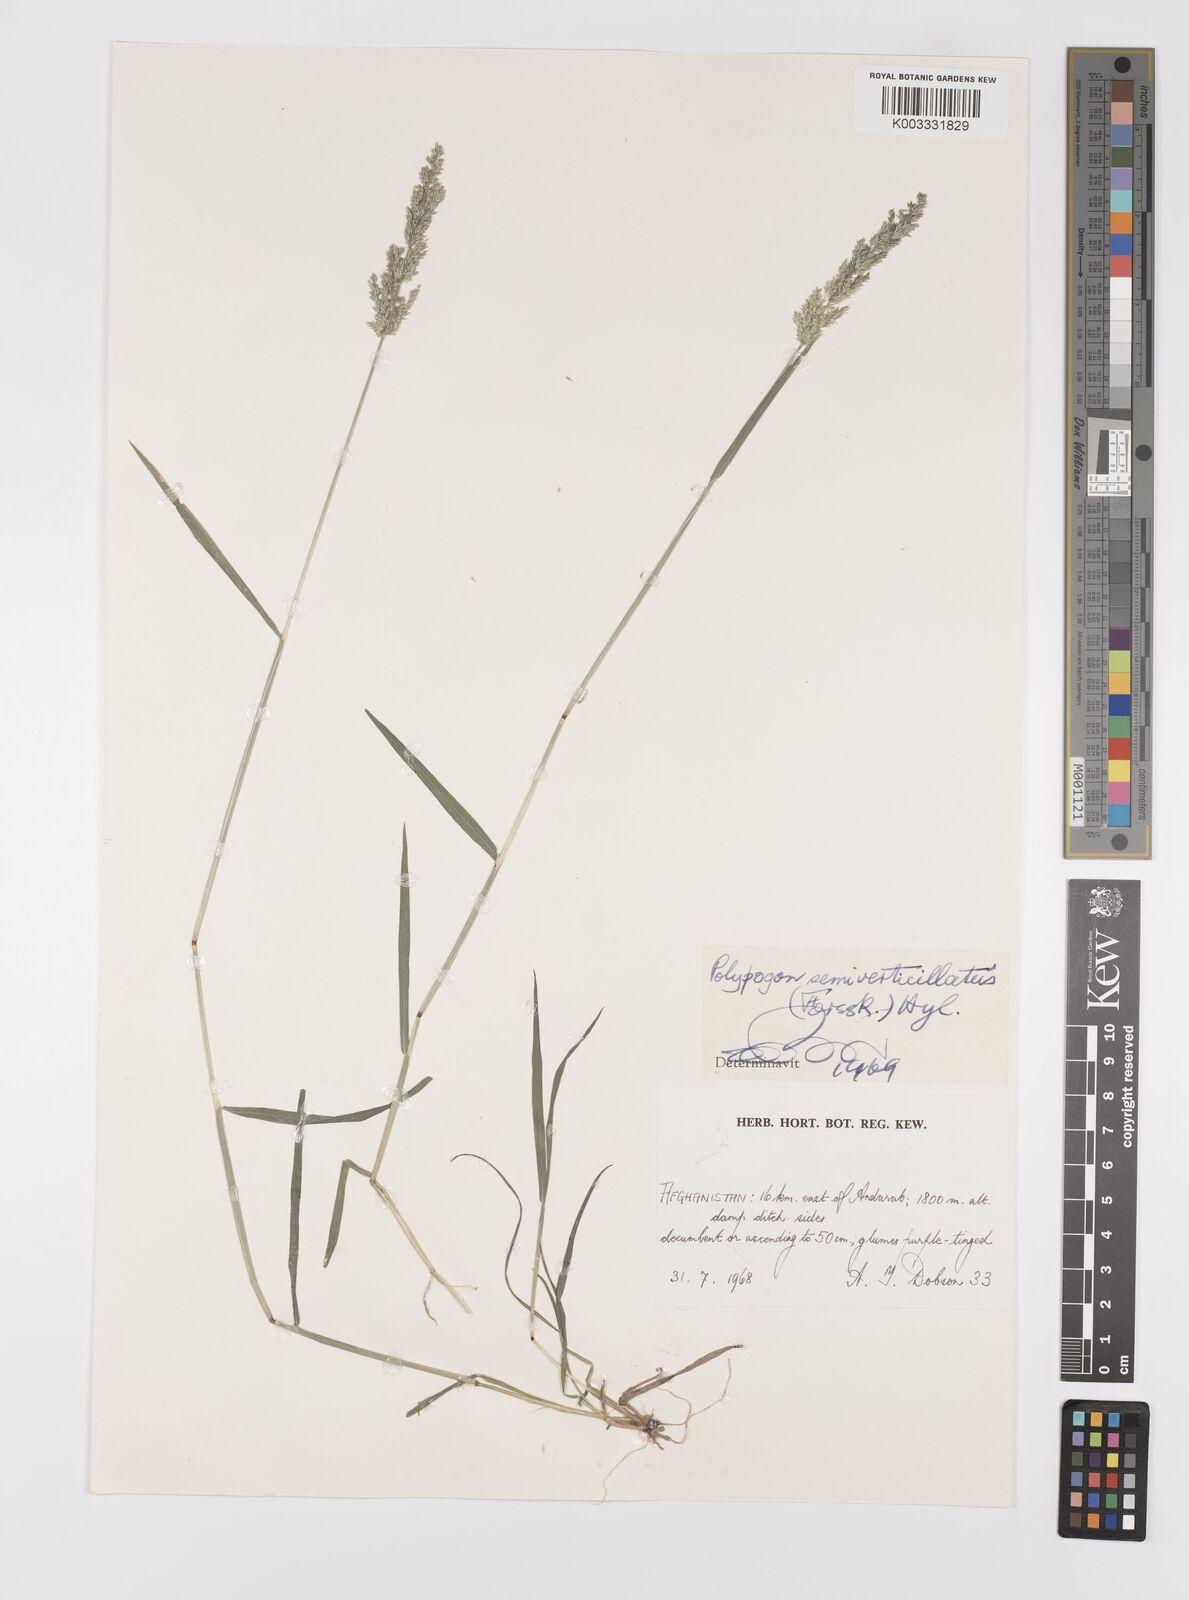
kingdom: Plantae
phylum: Tracheophyta
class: Liliopsida
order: Poales
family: Poaceae
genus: Polypogon
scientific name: Polypogon viridis
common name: Water bent
